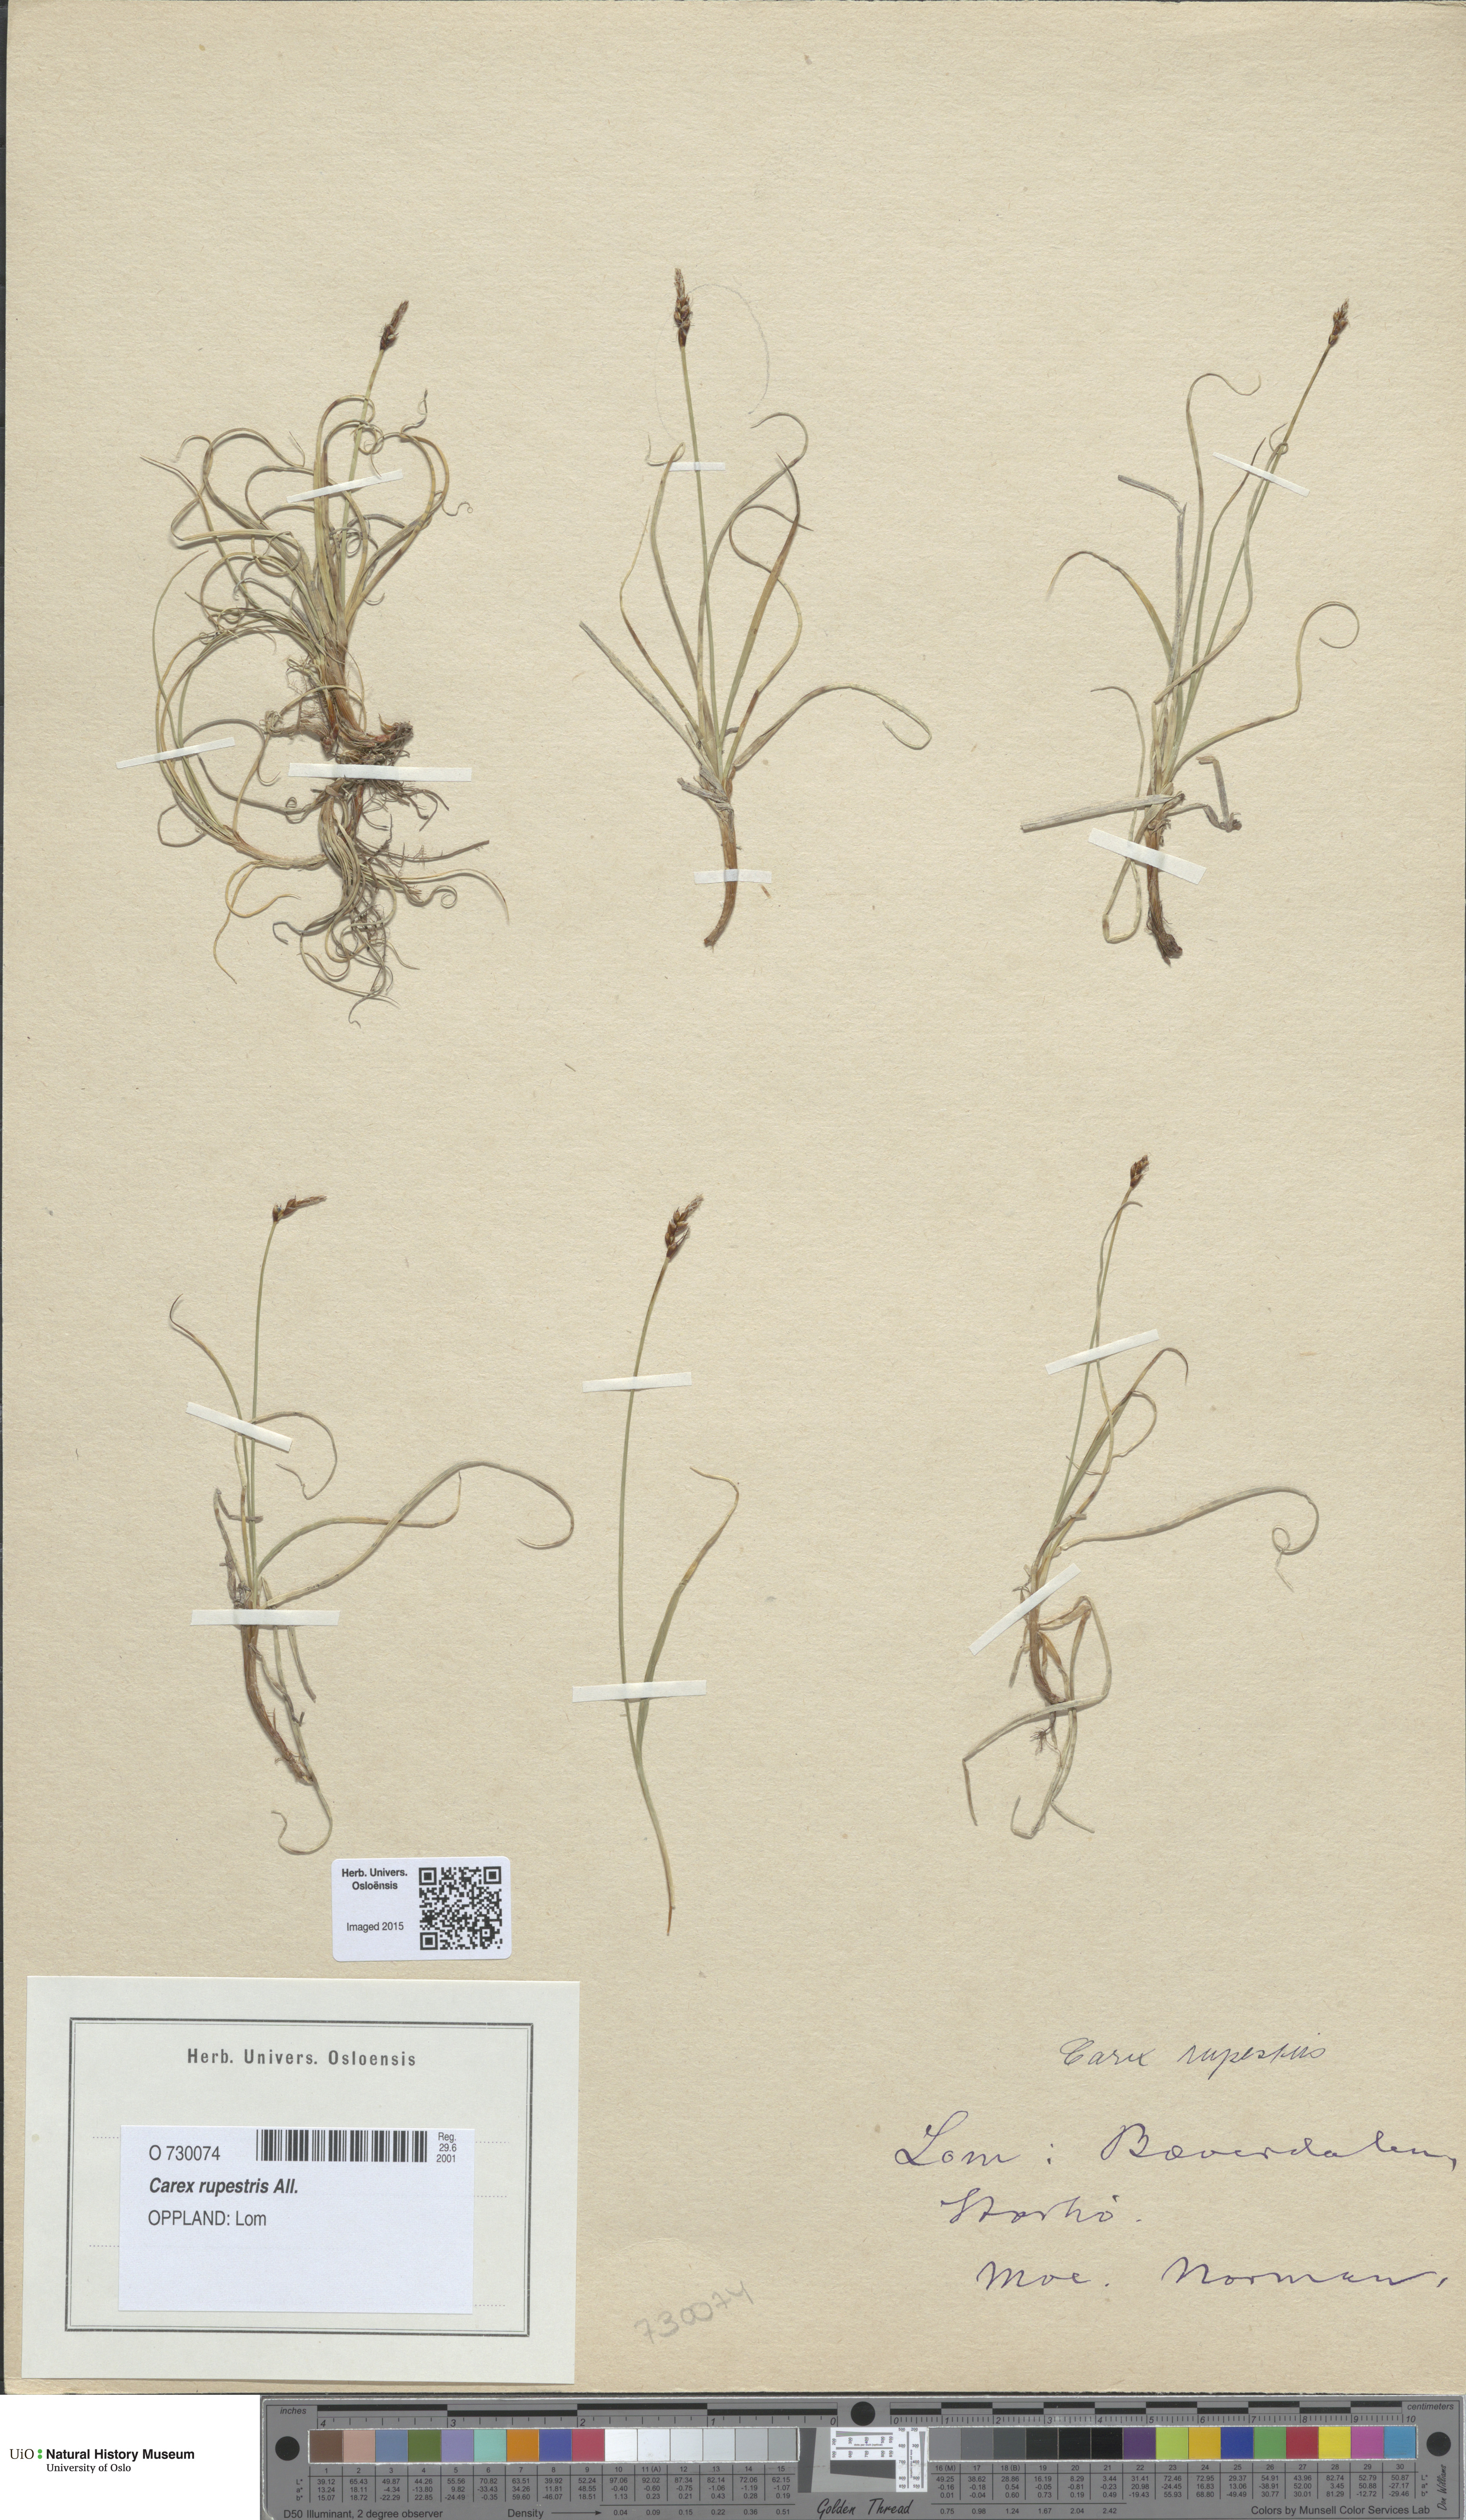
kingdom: Plantae
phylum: Tracheophyta
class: Liliopsida
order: Poales
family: Cyperaceae
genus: Carex
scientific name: Carex rupestris
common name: Rock sedge
